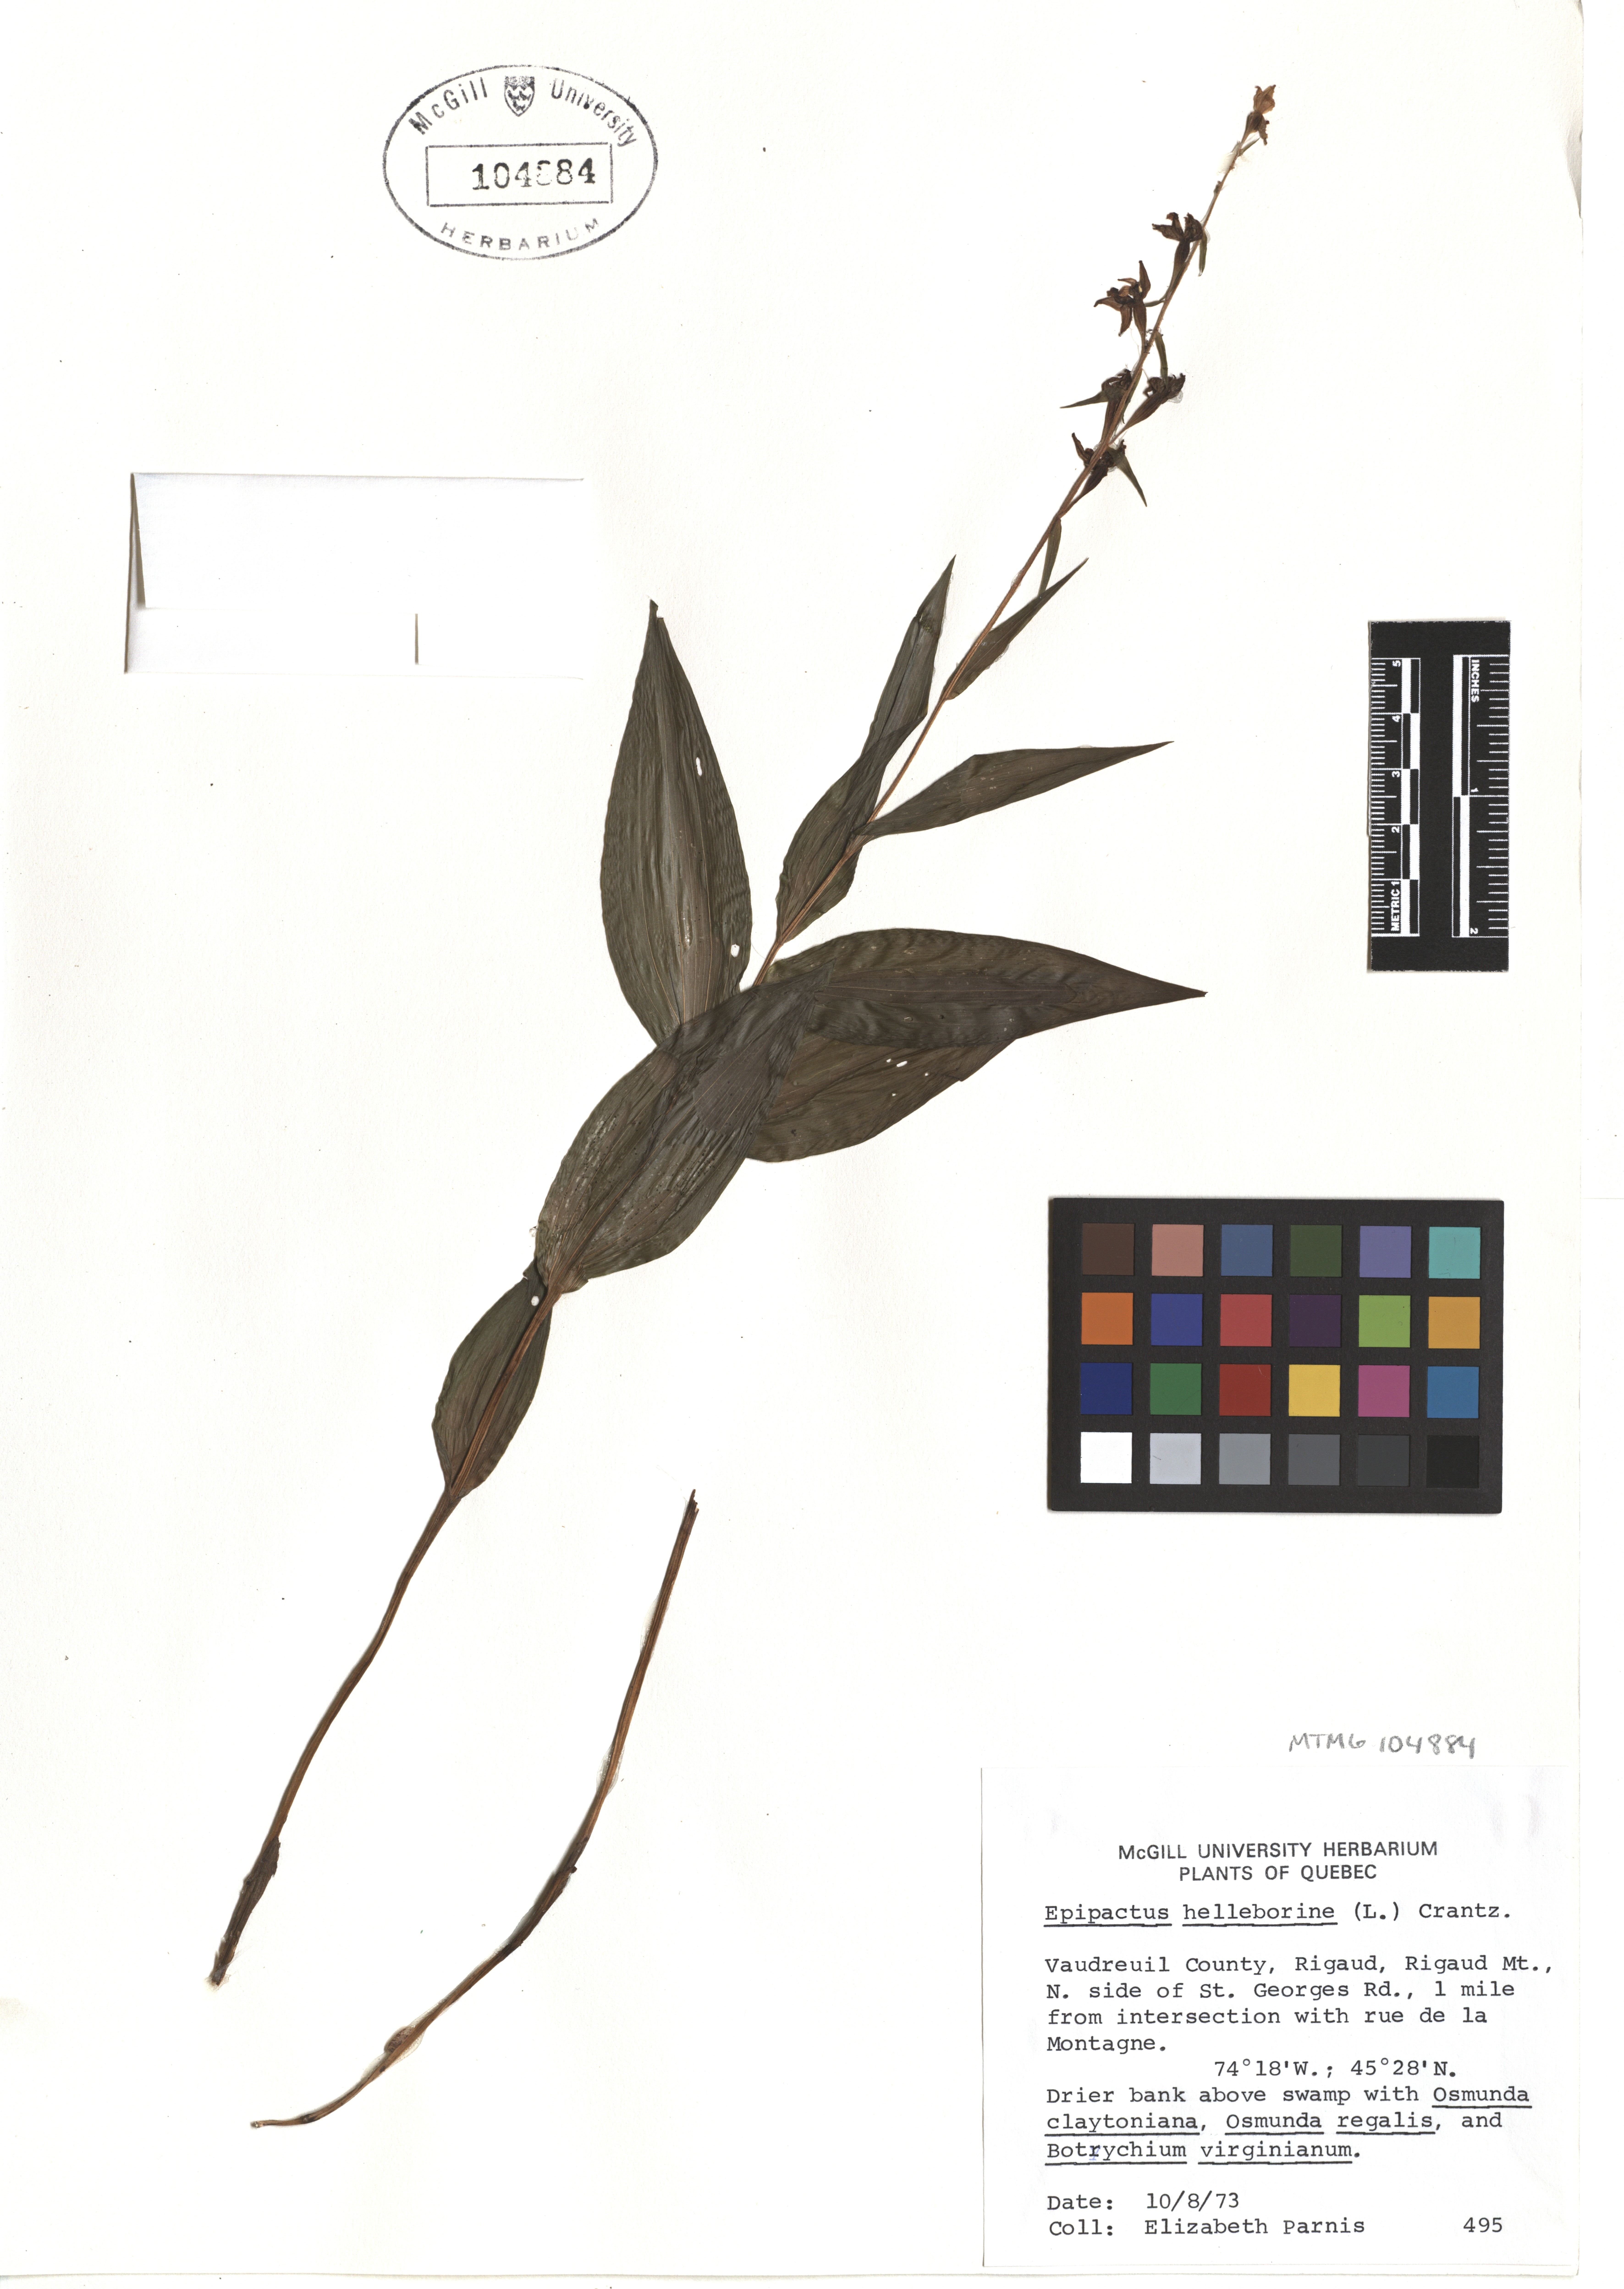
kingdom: Plantae
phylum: Tracheophyta
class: Liliopsida
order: Asparagales
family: Orchidaceae
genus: Epipactis
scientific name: Epipactis helleborine
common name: Broad-leaved helleborine
